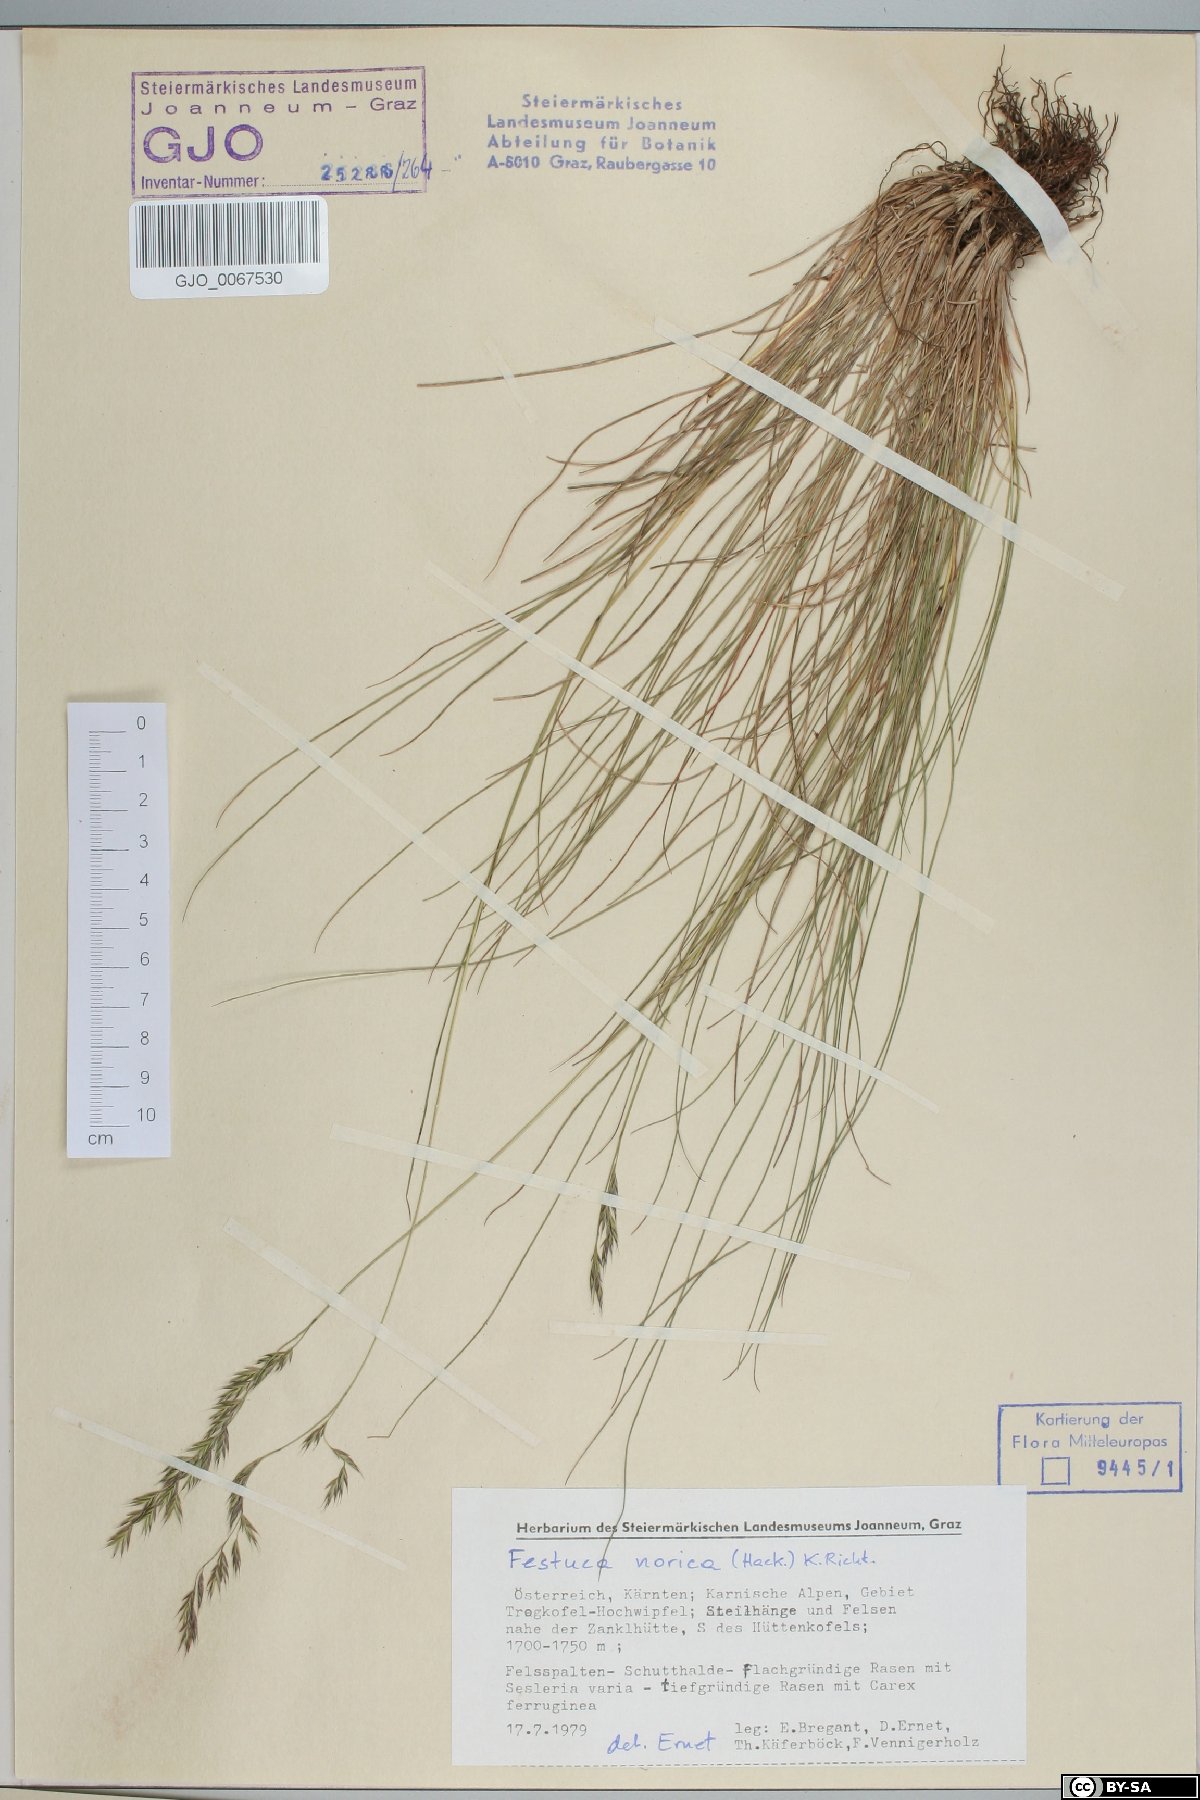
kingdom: Plantae
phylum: Tracheophyta
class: Liliopsida
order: Poales
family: Poaceae
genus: Festuca
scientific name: Festuca norica
